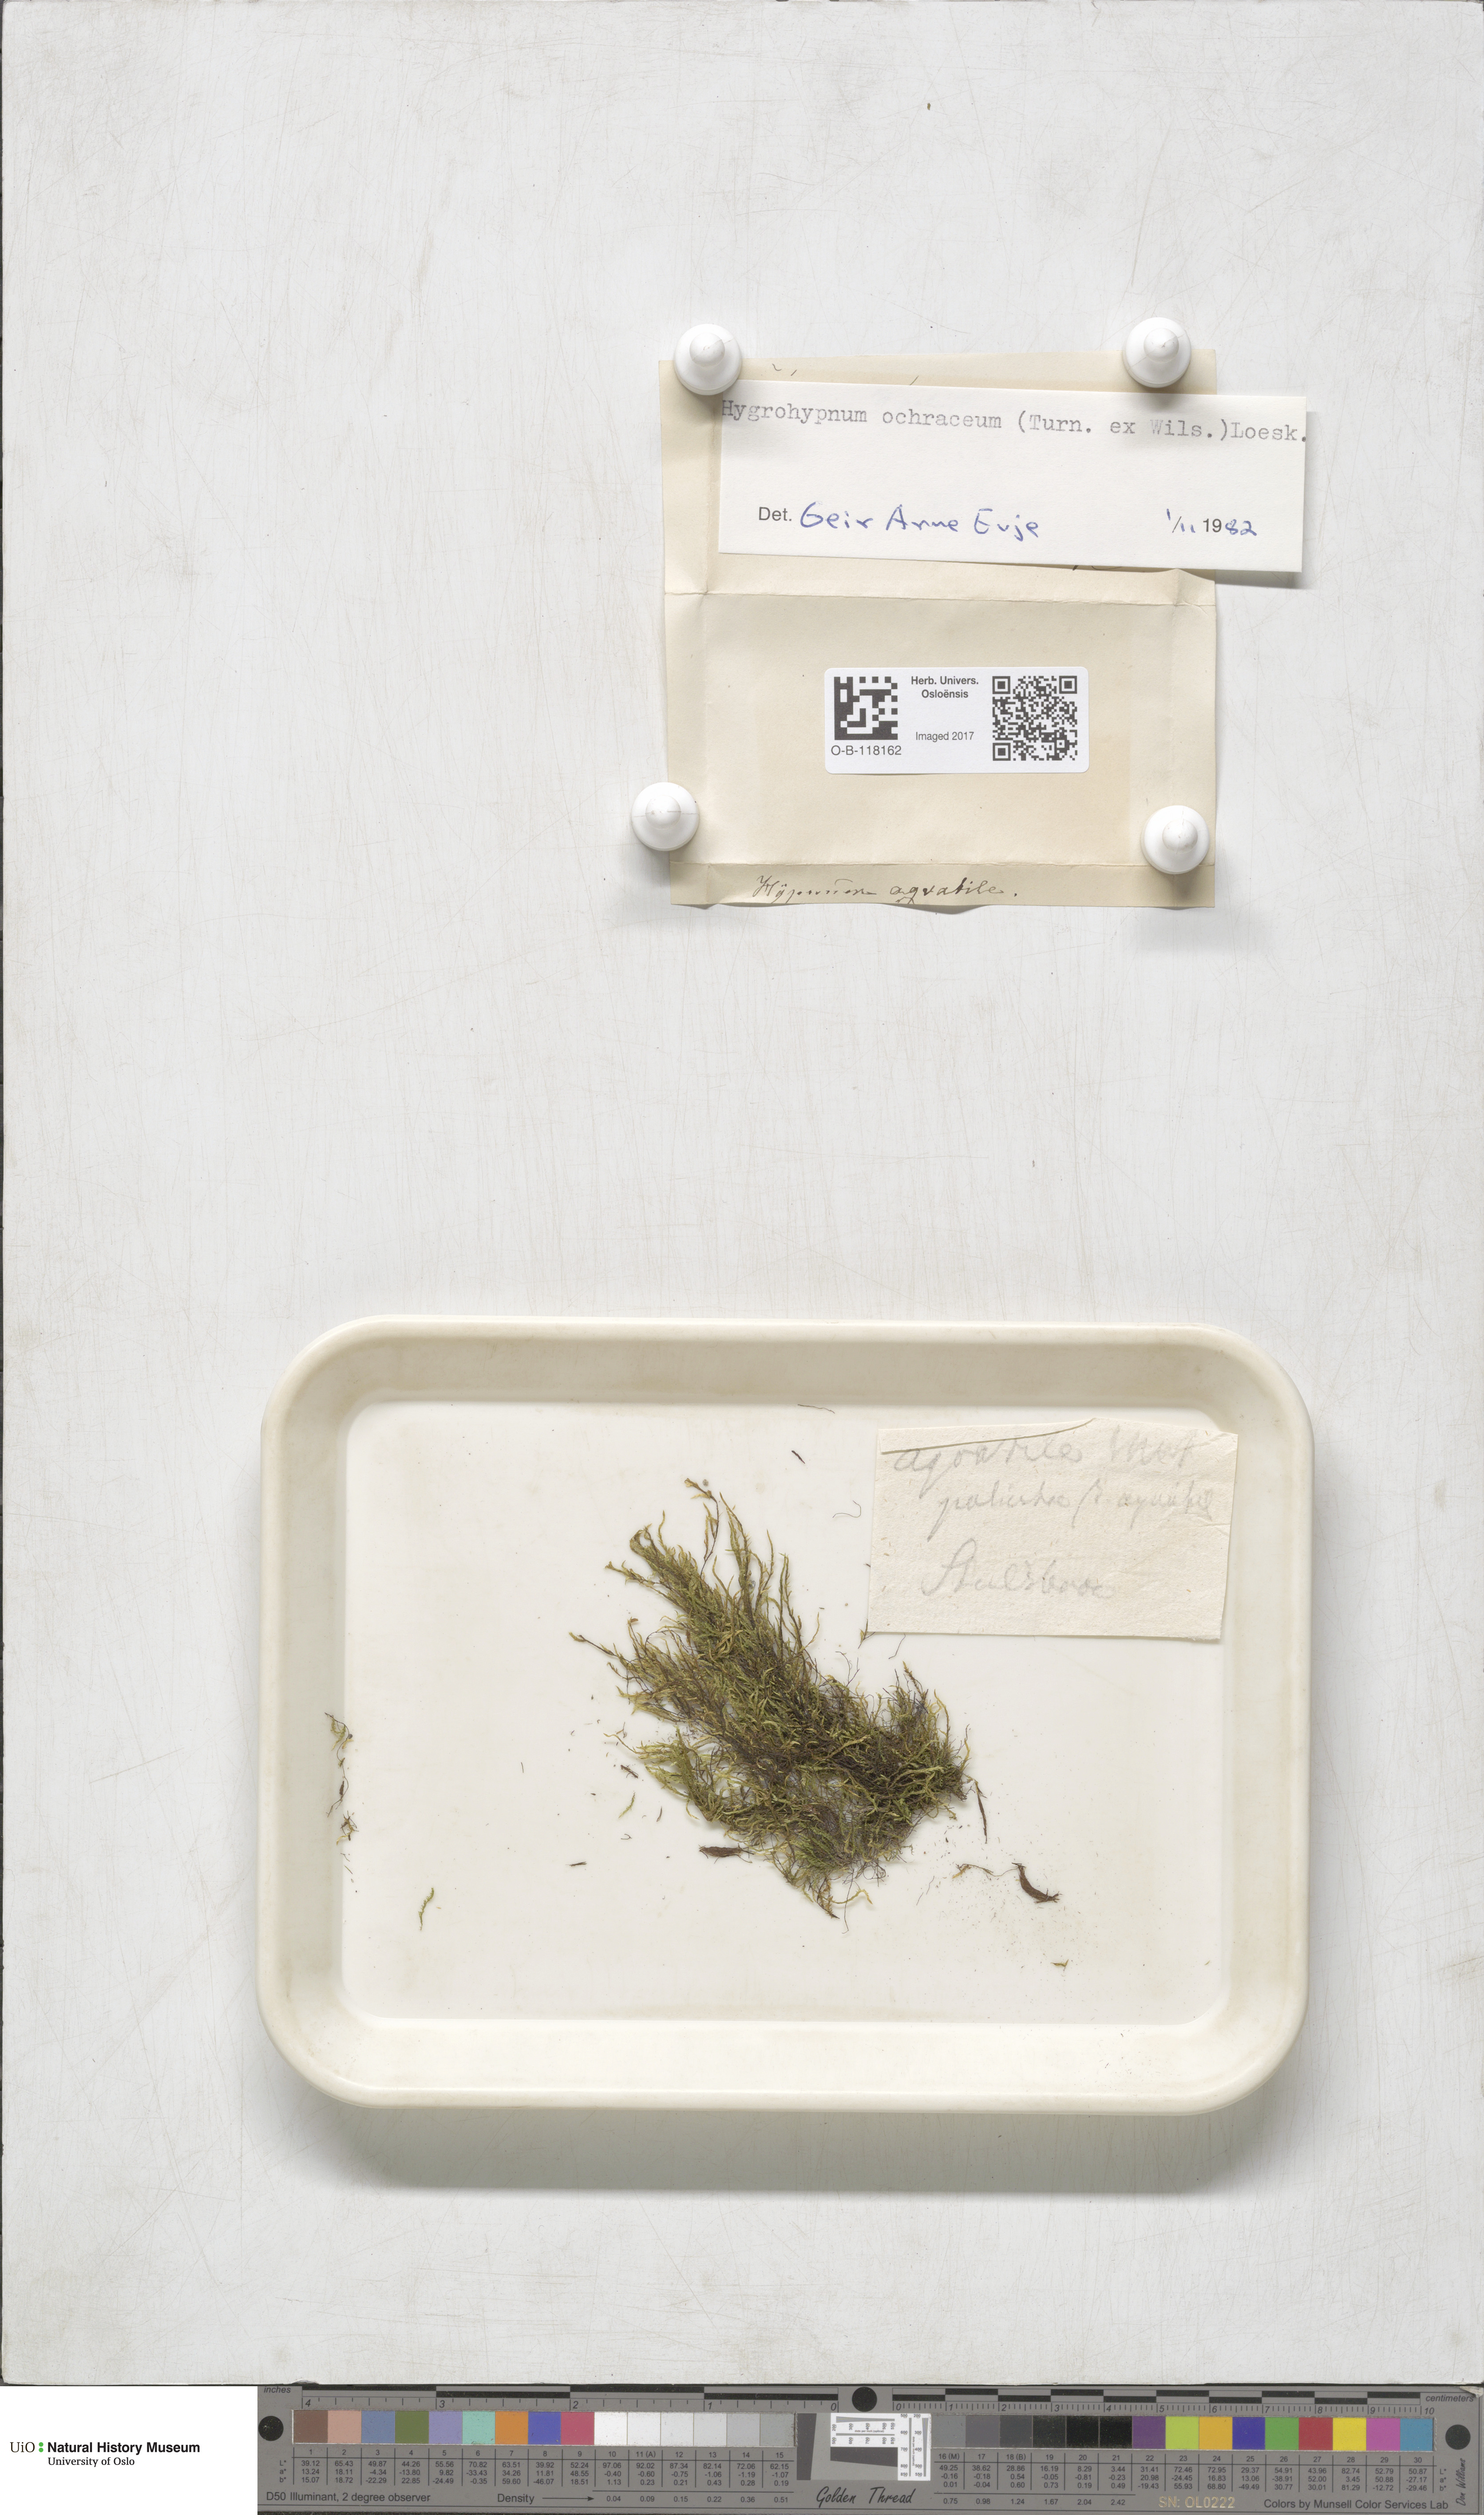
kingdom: Plantae
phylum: Bryophyta
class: Bryopsida
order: Hypnales
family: Scorpidiaceae
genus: Hygrohypnella
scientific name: Hygrohypnella ochracea
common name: Hygrohypnum moss
